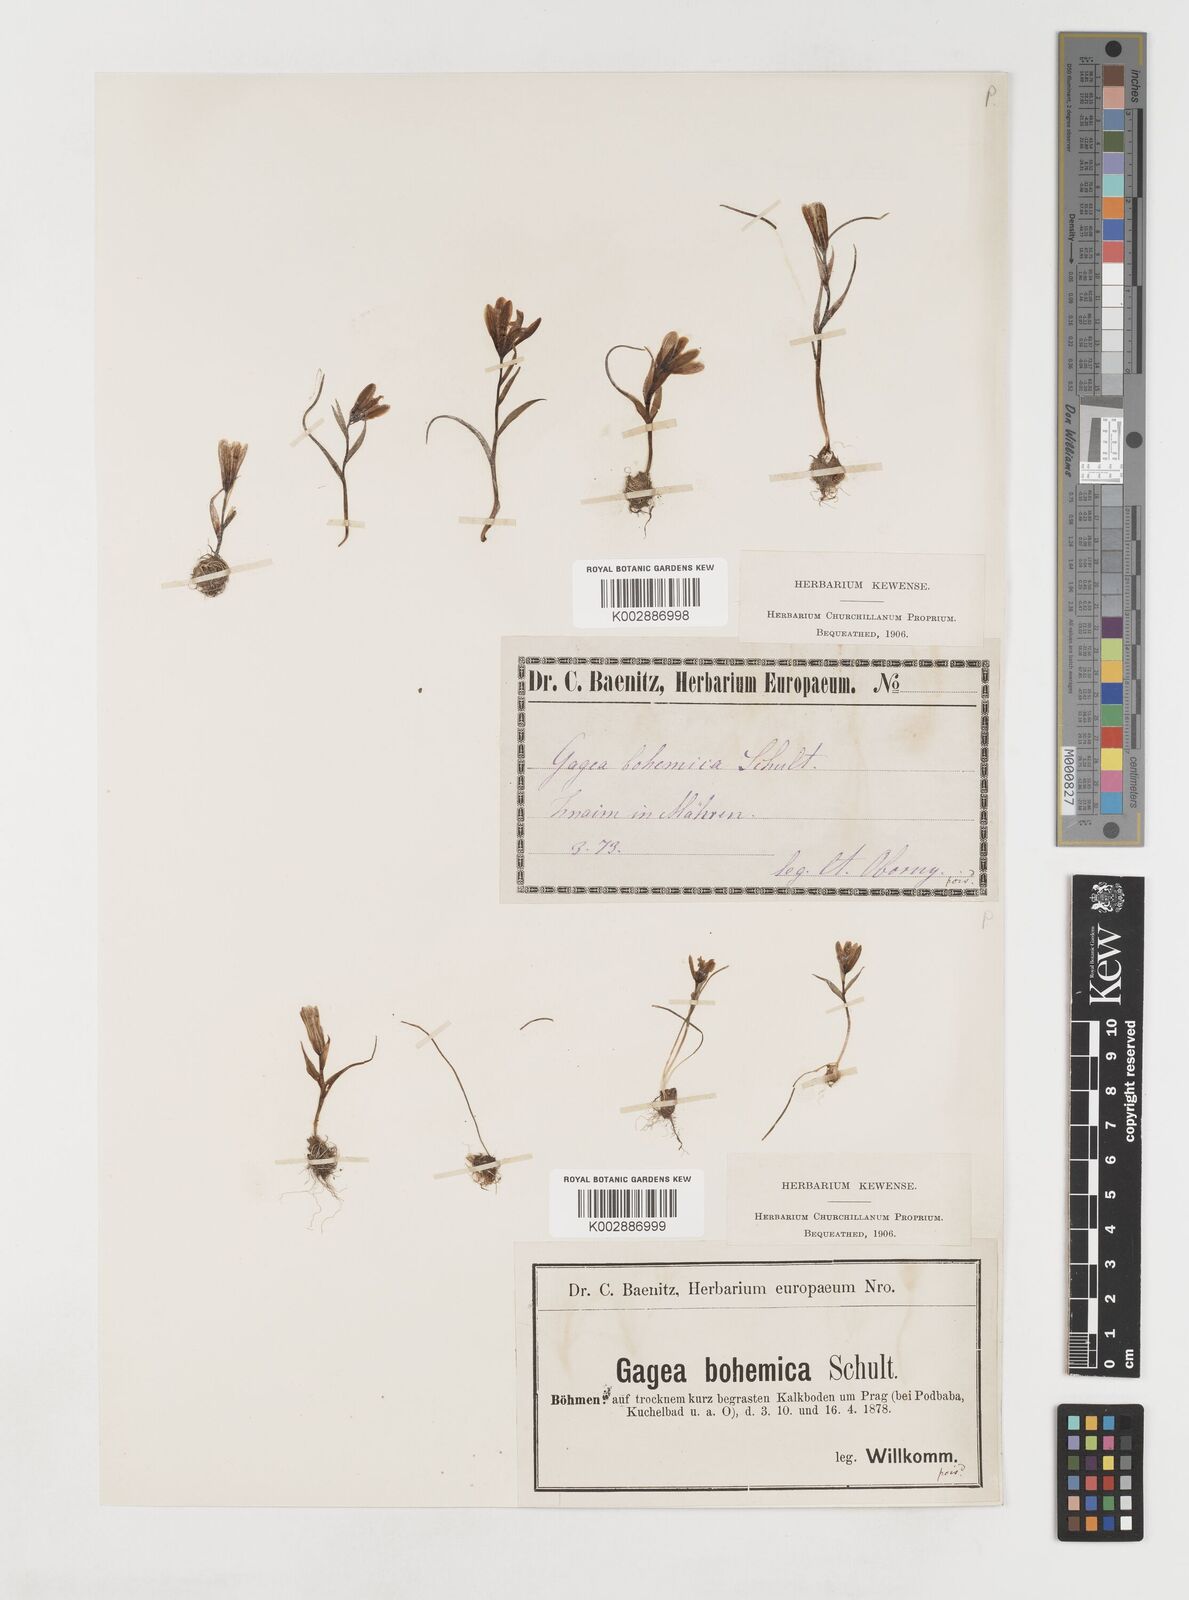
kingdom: Plantae
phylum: Tracheophyta
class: Liliopsida
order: Liliales
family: Liliaceae
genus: Gagea
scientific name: Gagea bohemica
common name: Early star-of-bethlehem
